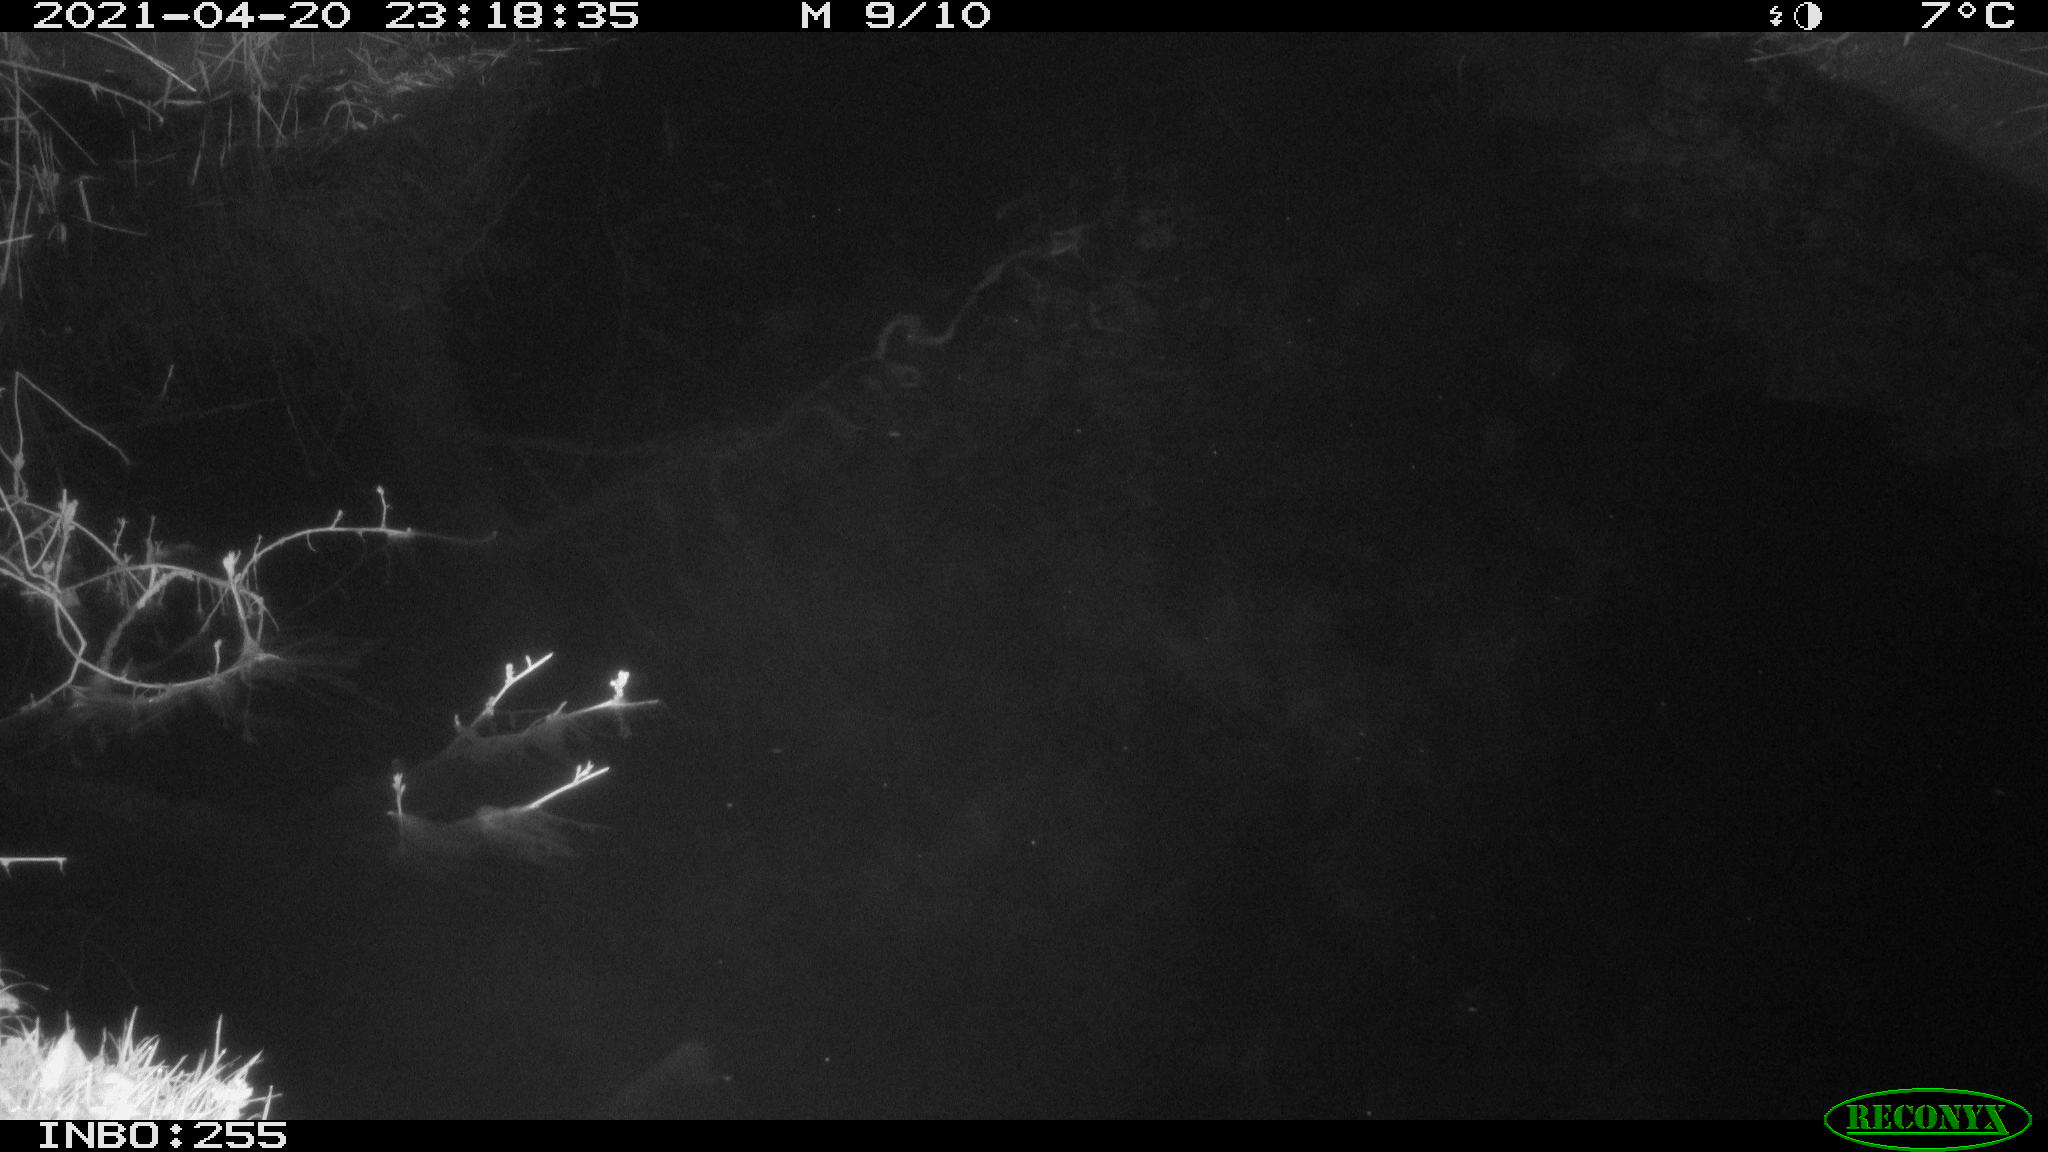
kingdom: Animalia
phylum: Chordata
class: Aves
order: Anseriformes
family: Anatidae
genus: Anas
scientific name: Anas platyrhynchos
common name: Mallard
